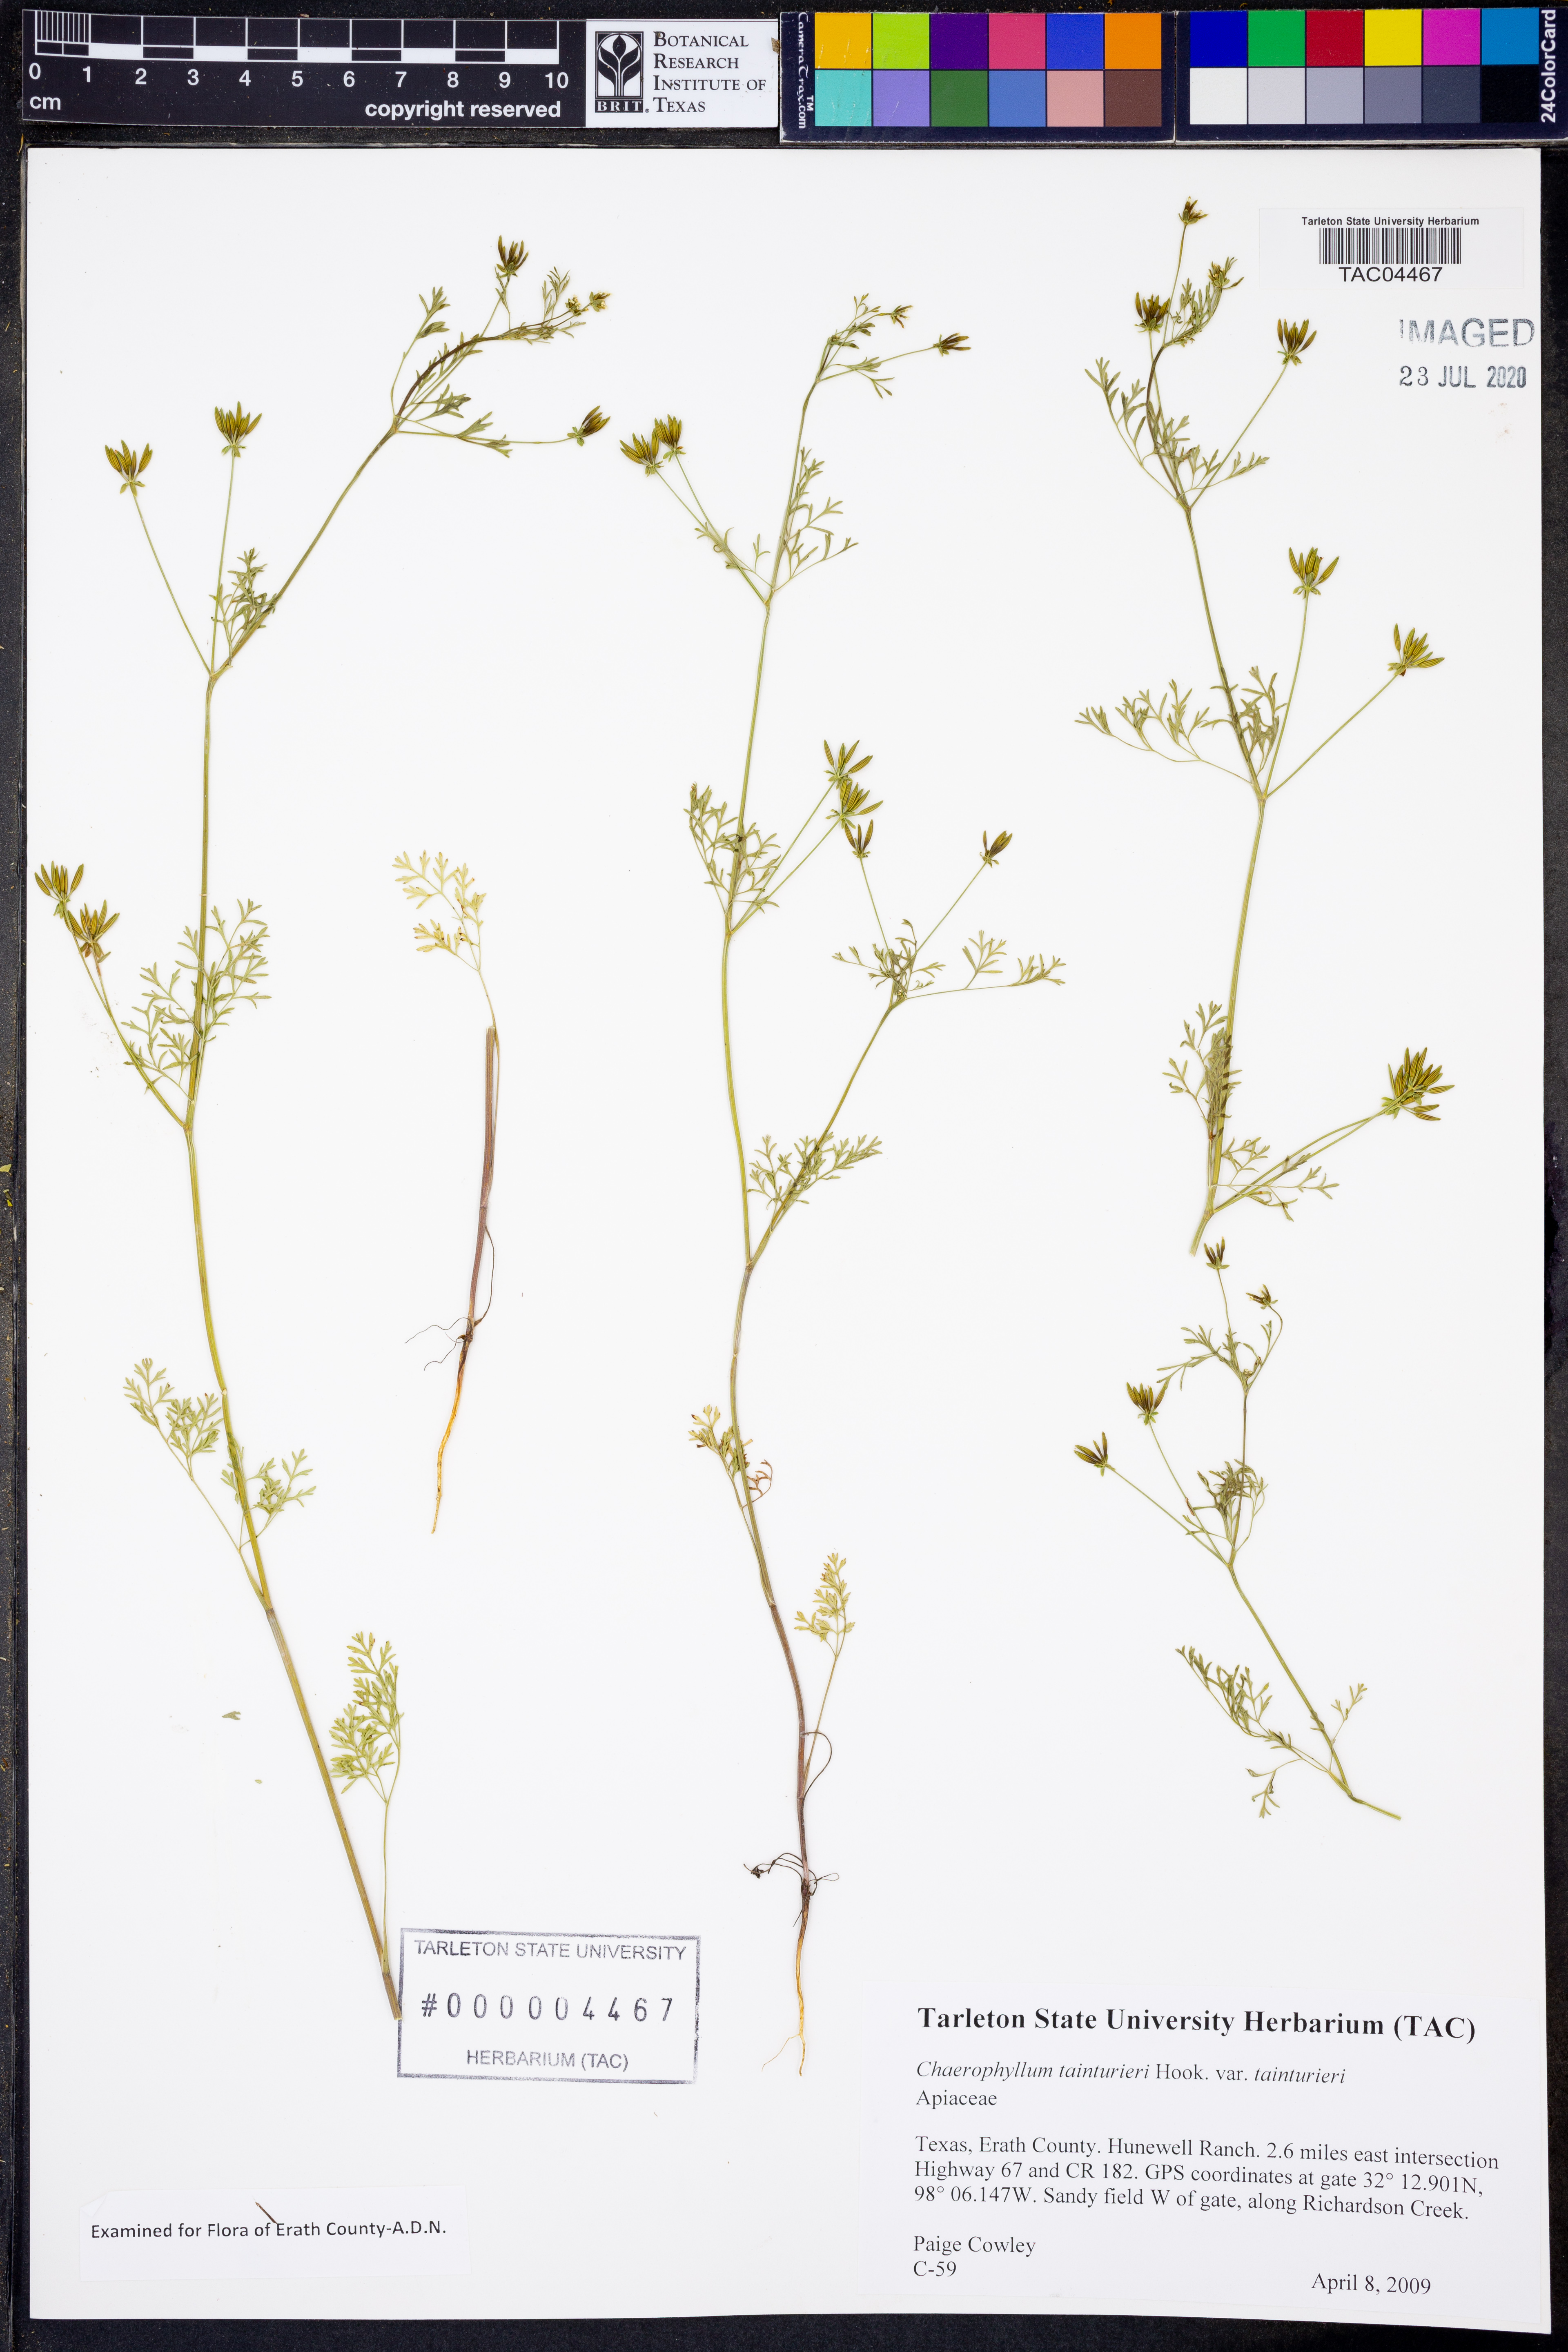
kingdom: Plantae
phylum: Tracheophyta
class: Magnoliopsida
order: Apiales
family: Apiaceae
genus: Chaerophyllum
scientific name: Chaerophyllum tainturieri
